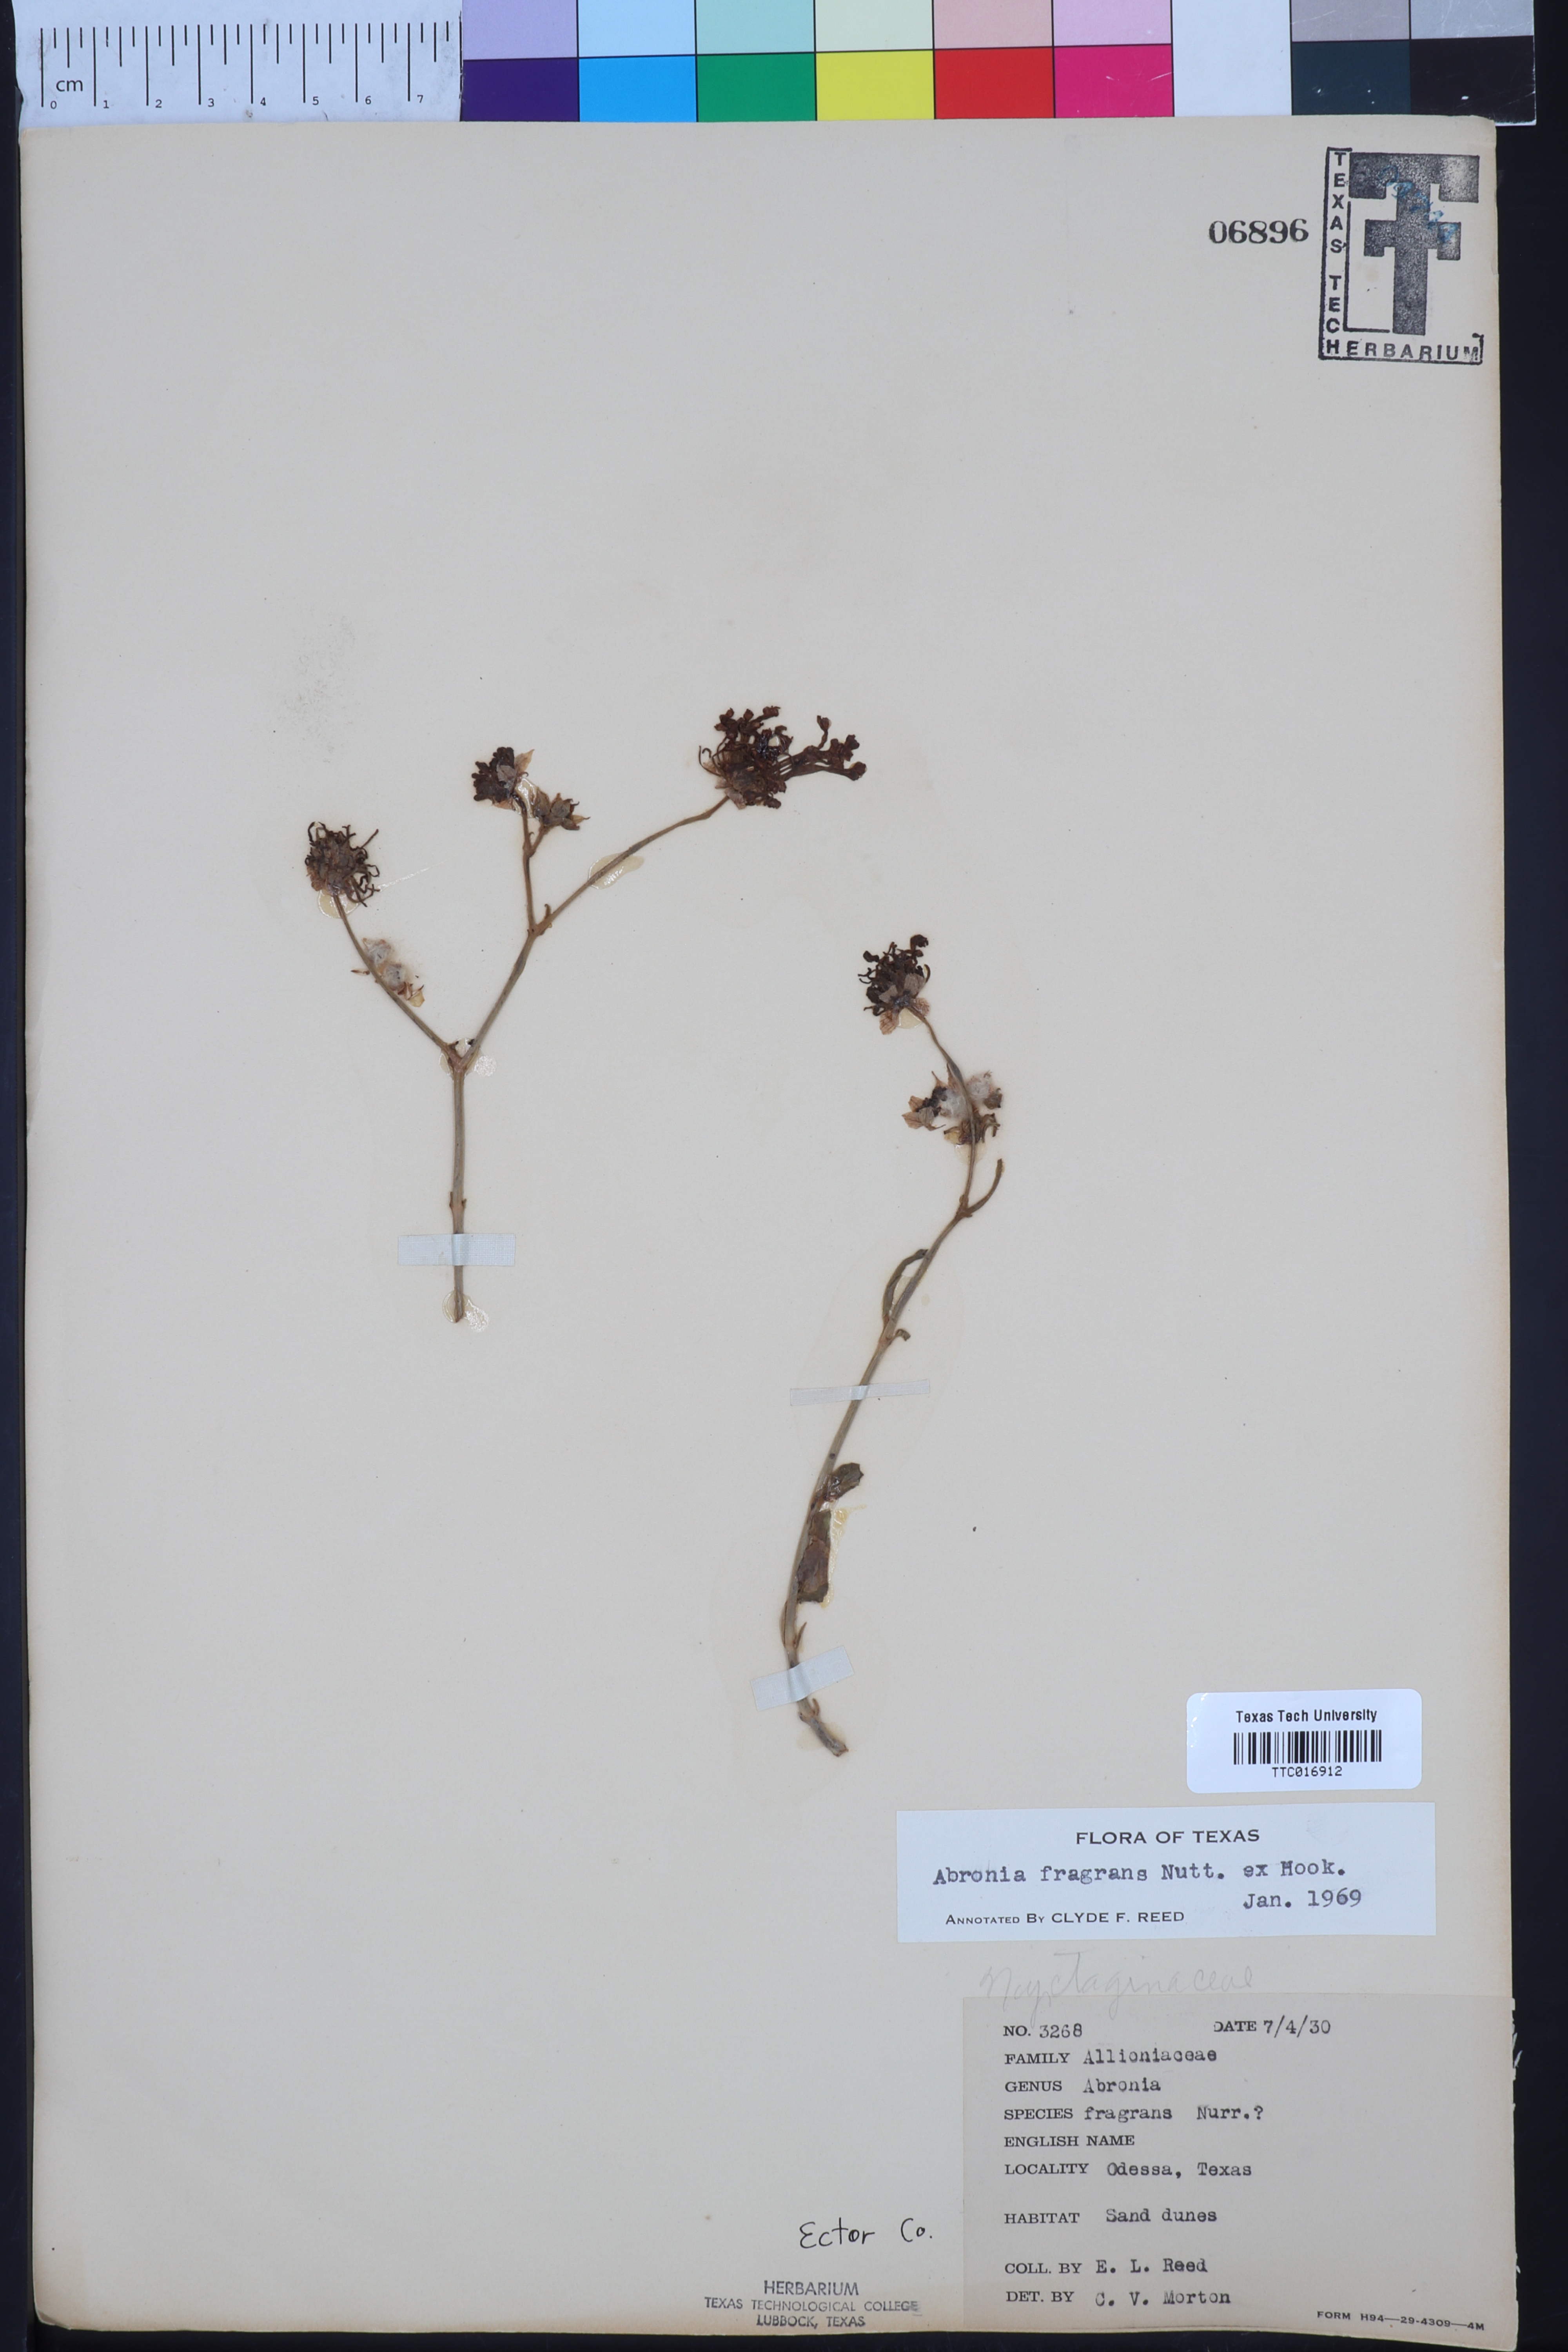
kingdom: Plantae
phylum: Tracheophyta
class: Magnoliopsida
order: Caryophyllales
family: Nyctaginaceae
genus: Abronia
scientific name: Abronia fragrans
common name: Fragrant sand-verbena
